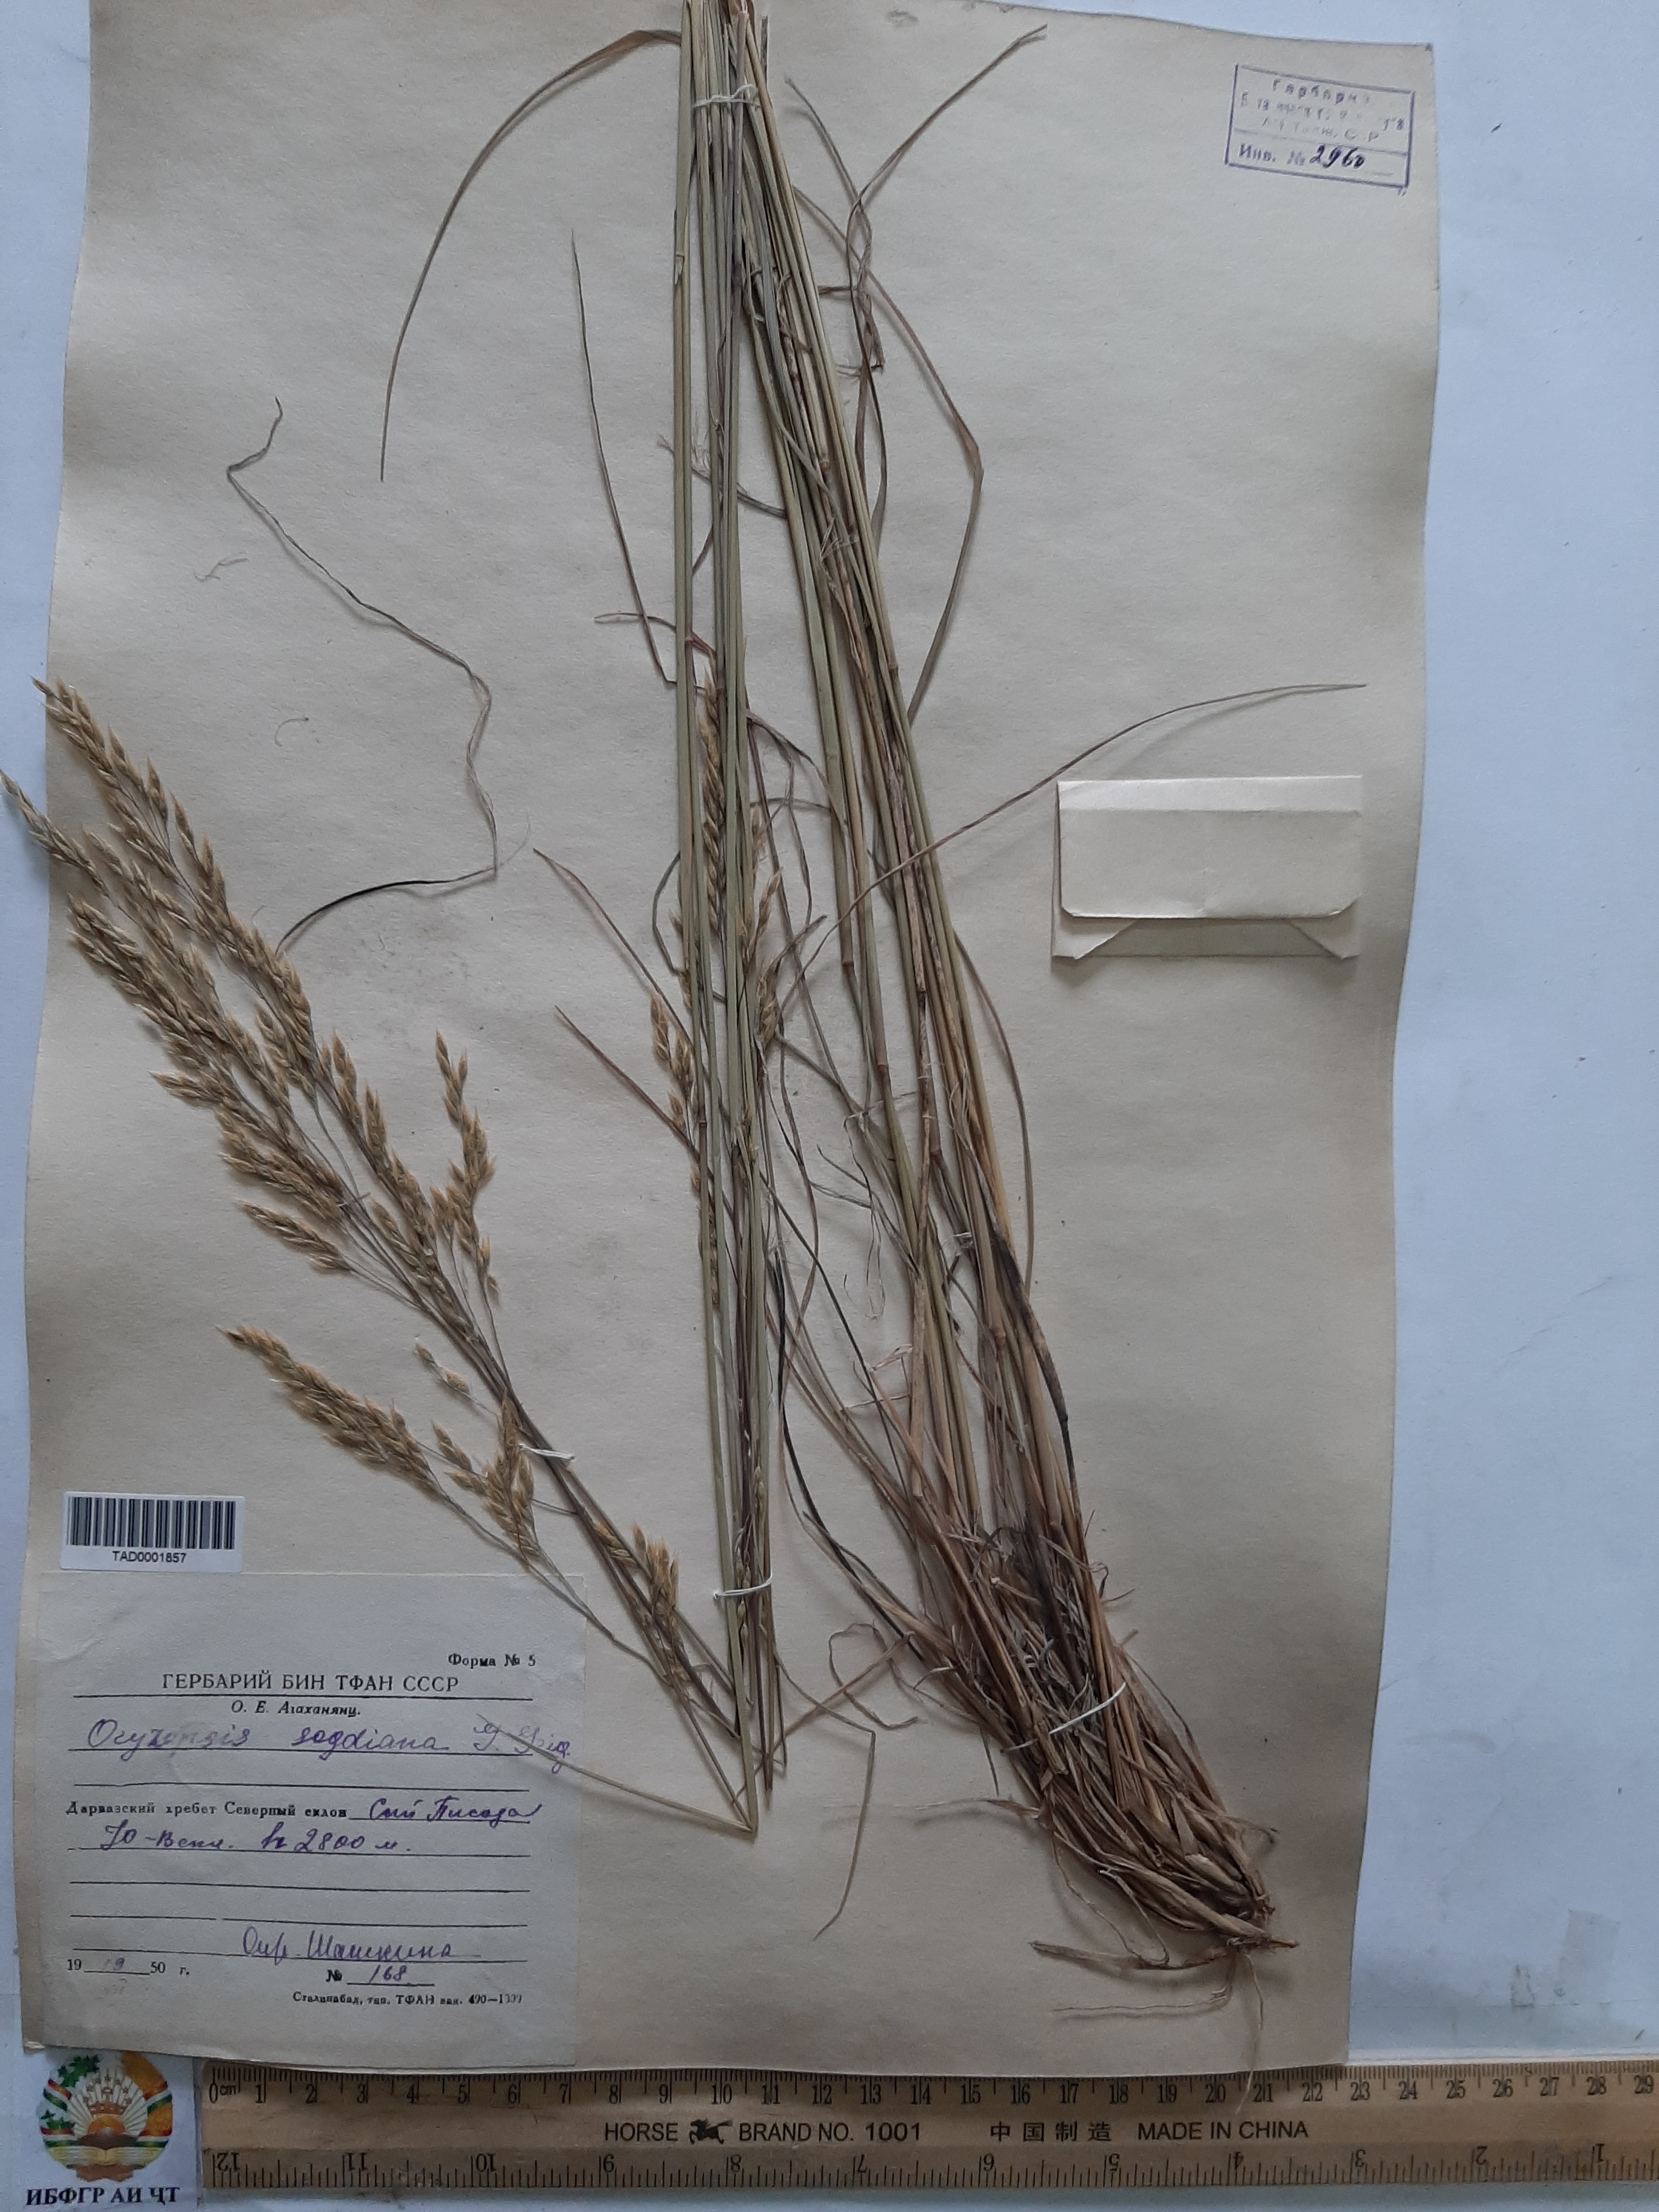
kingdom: Plantae
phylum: Tracheophyta
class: Liliopsida
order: Poales
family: Poaceae
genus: Piptatherum
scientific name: Piptatherum sogdianum
